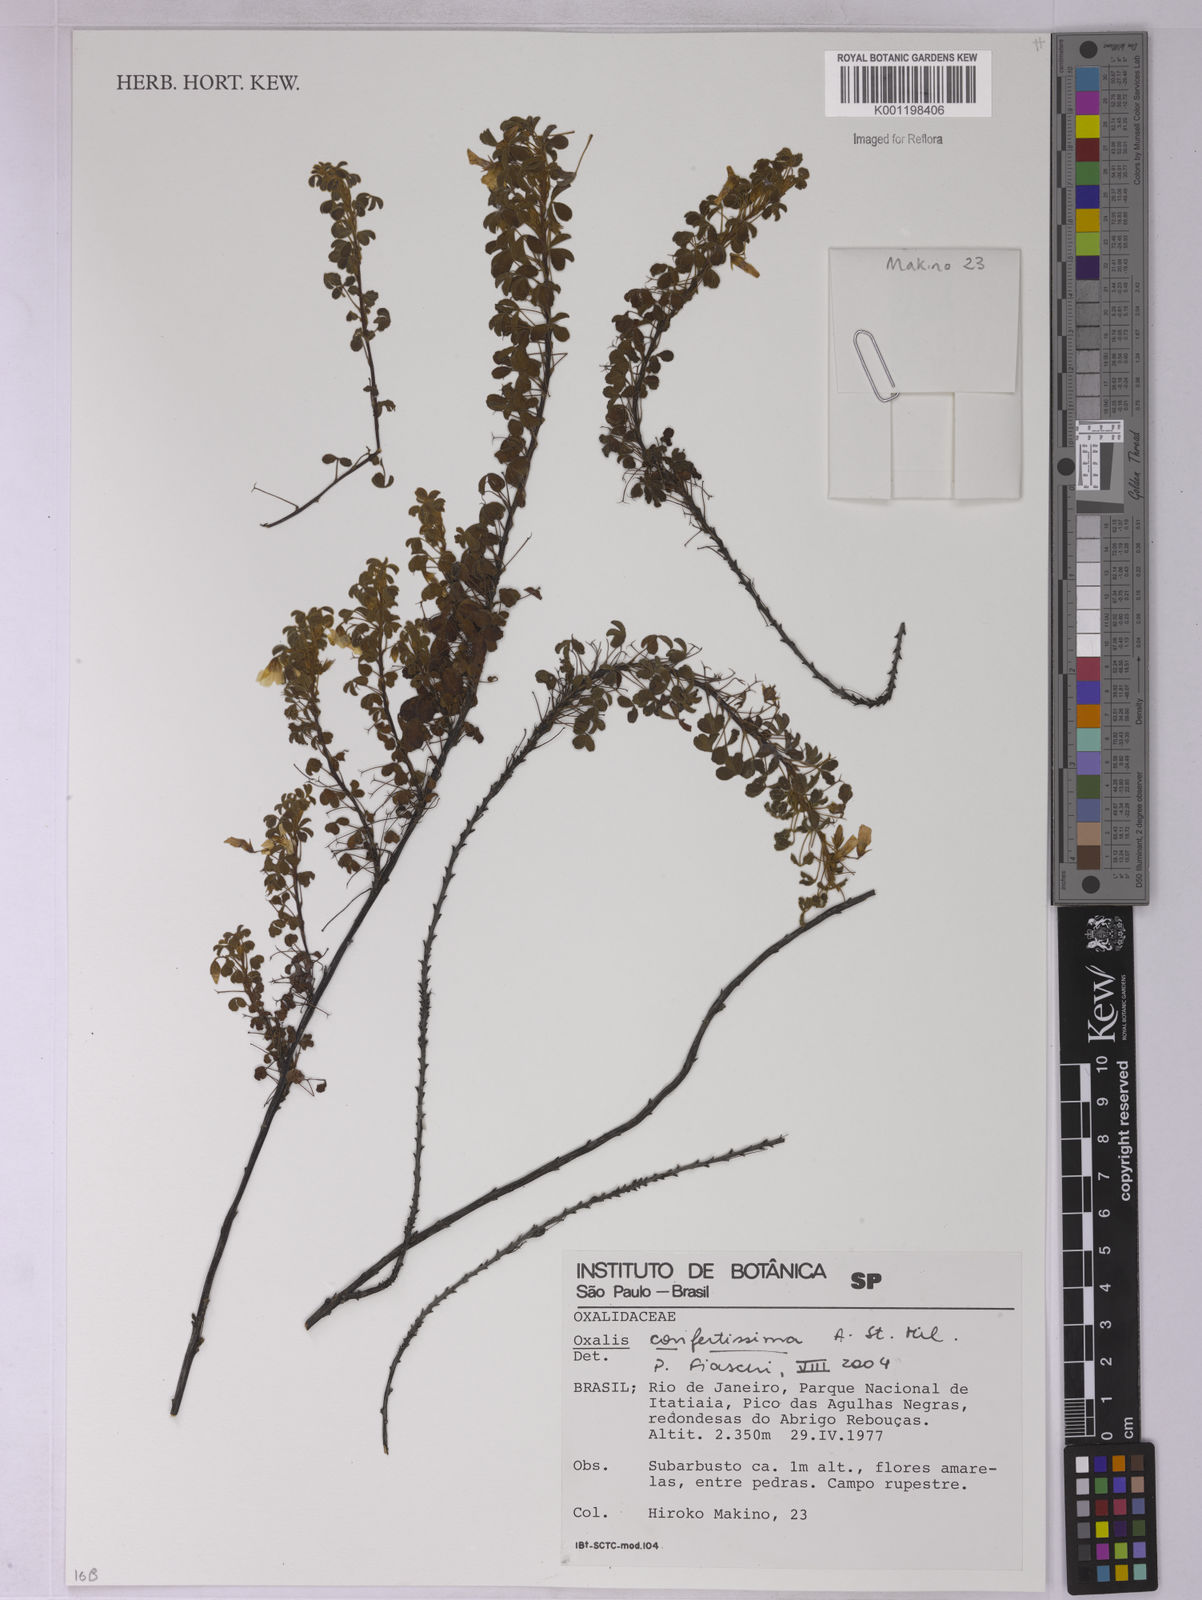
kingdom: Plantae
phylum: Tracheophyta
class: Magnoliopsida
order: Oxalidales
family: Oxalidaceae
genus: Oxalis
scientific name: Oxalis confertissima
